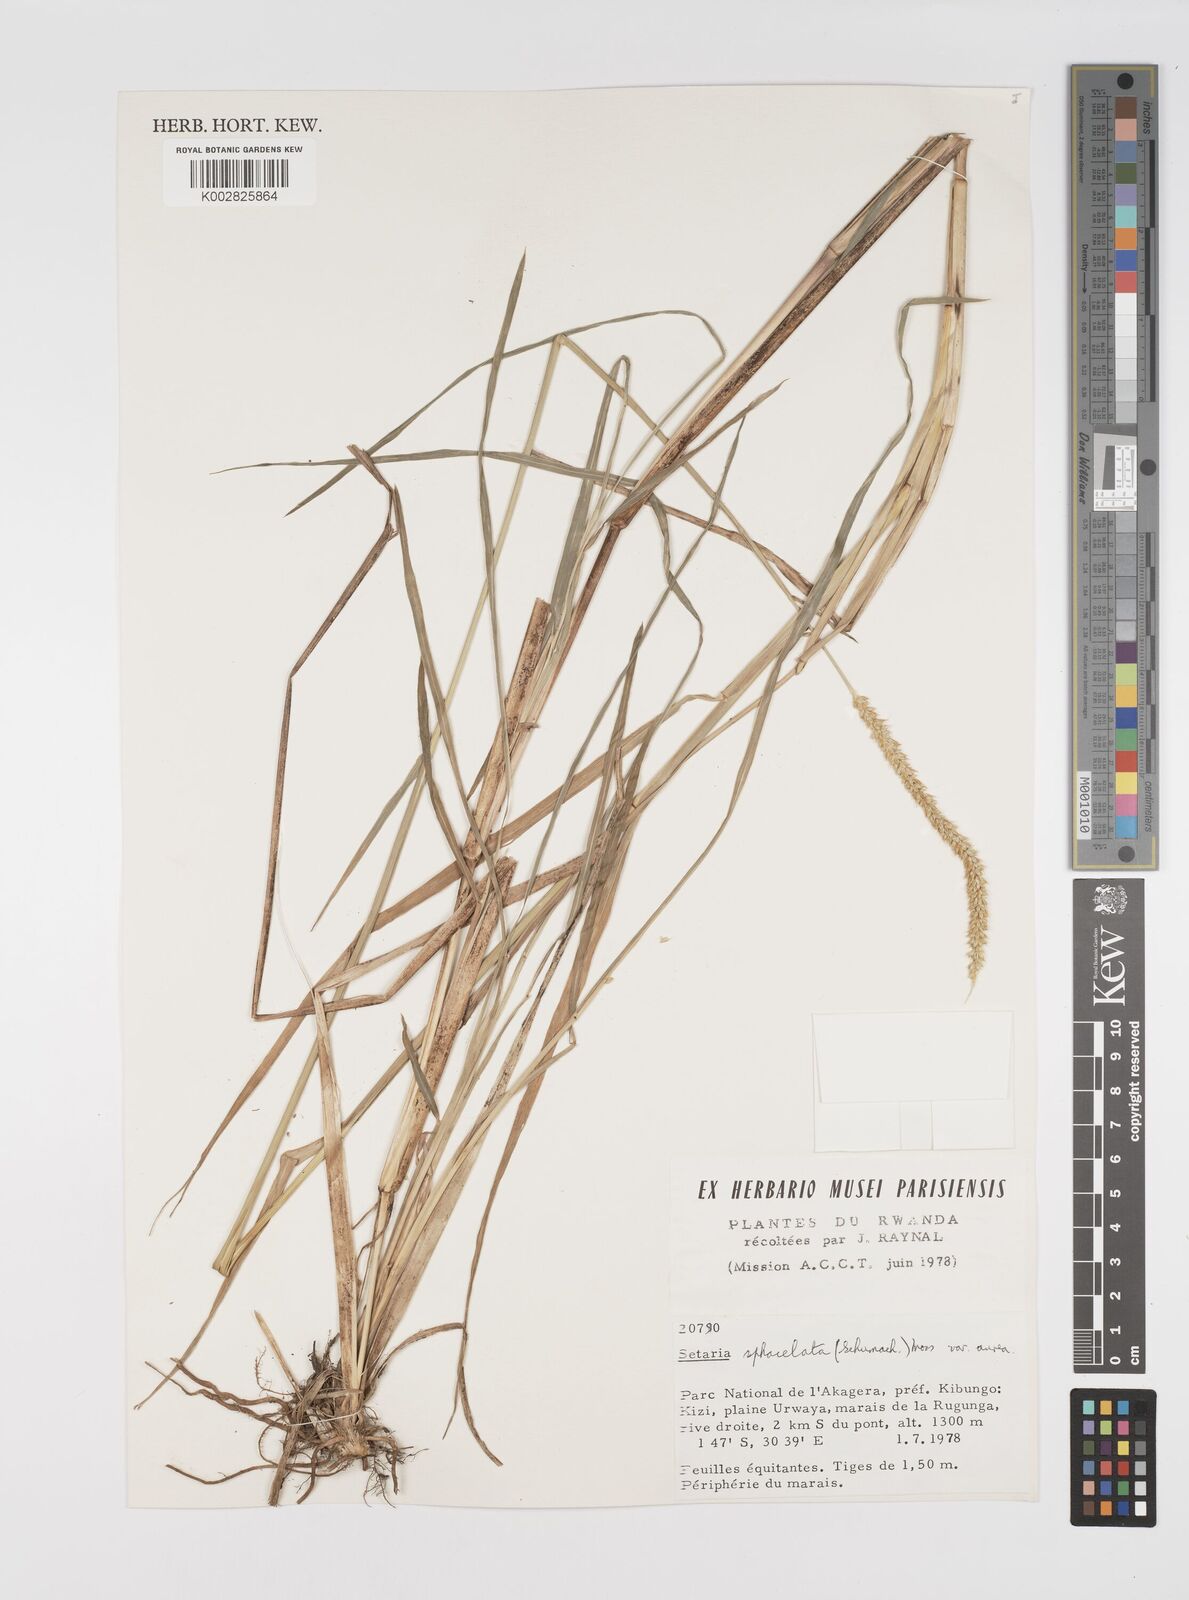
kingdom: Plantae
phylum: Tracheophyta
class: Liliopsida
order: Poales
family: Poaceae
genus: Setaria
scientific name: Setaria sphacelata
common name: African bristlegrass
